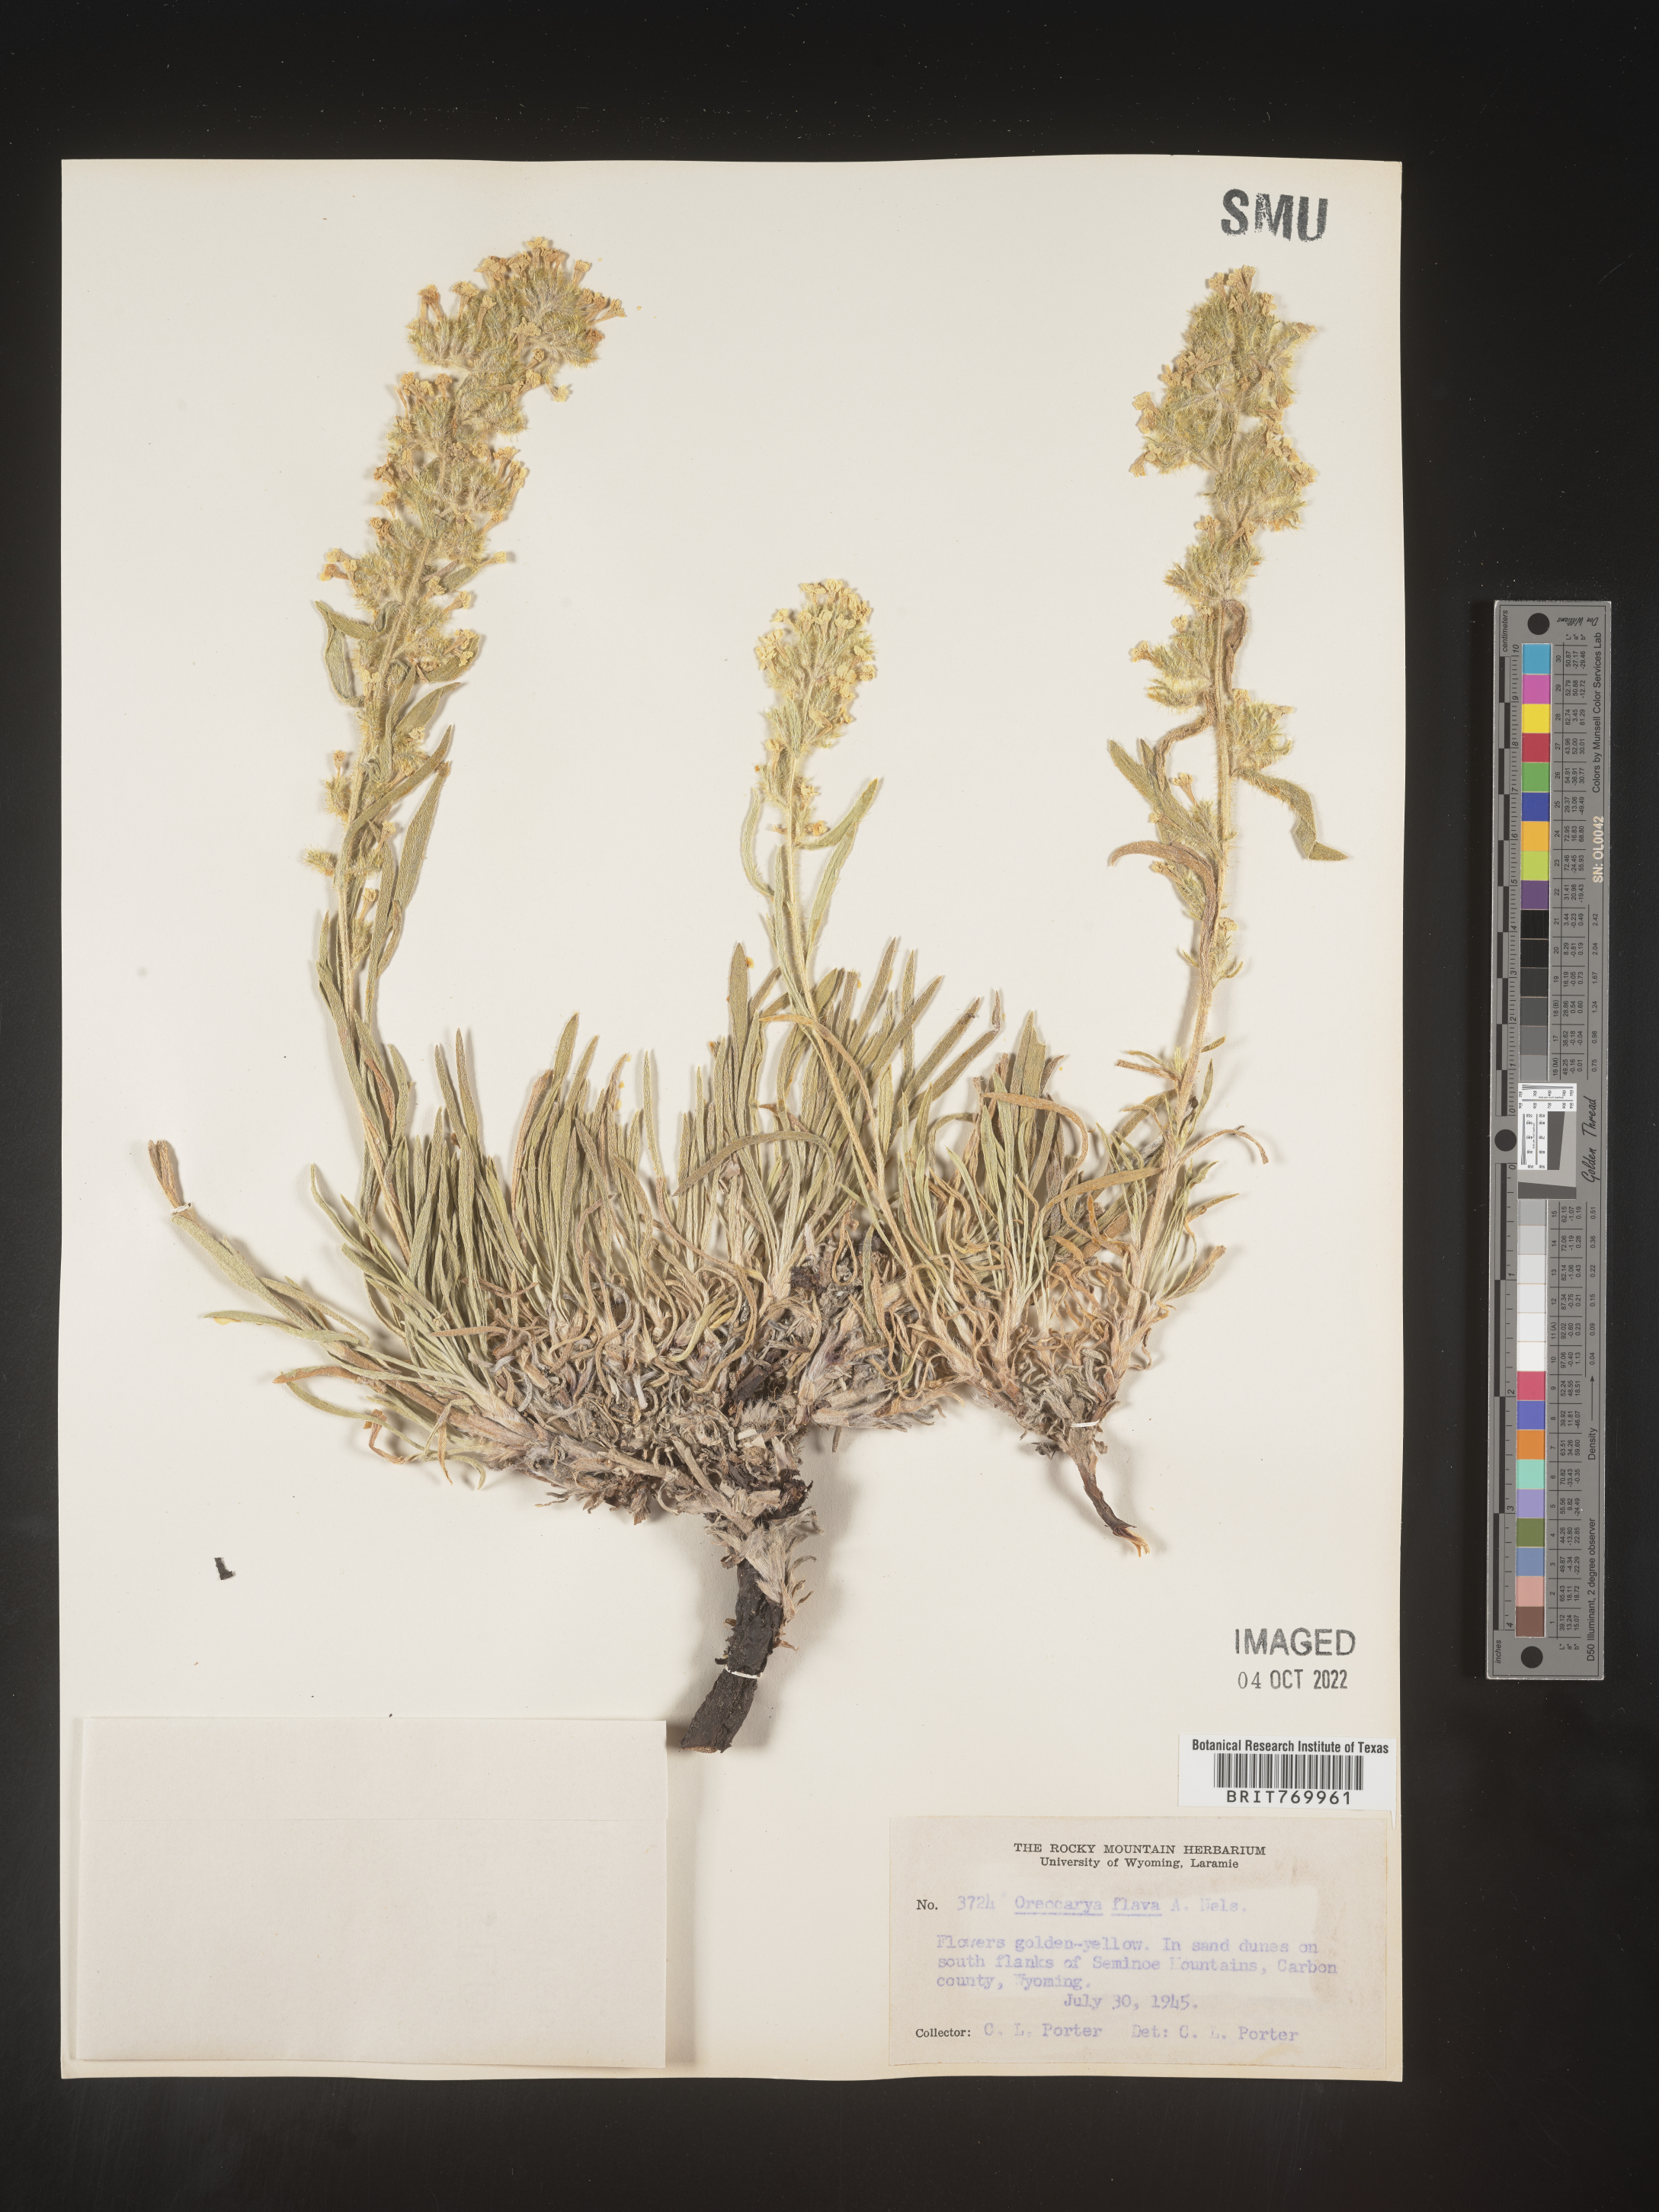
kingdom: Plantae
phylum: Tracheophyta
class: Magnoliopsida
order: Boraginales
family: Boraginaceae
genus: Oreocarya
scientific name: Oreocarya
